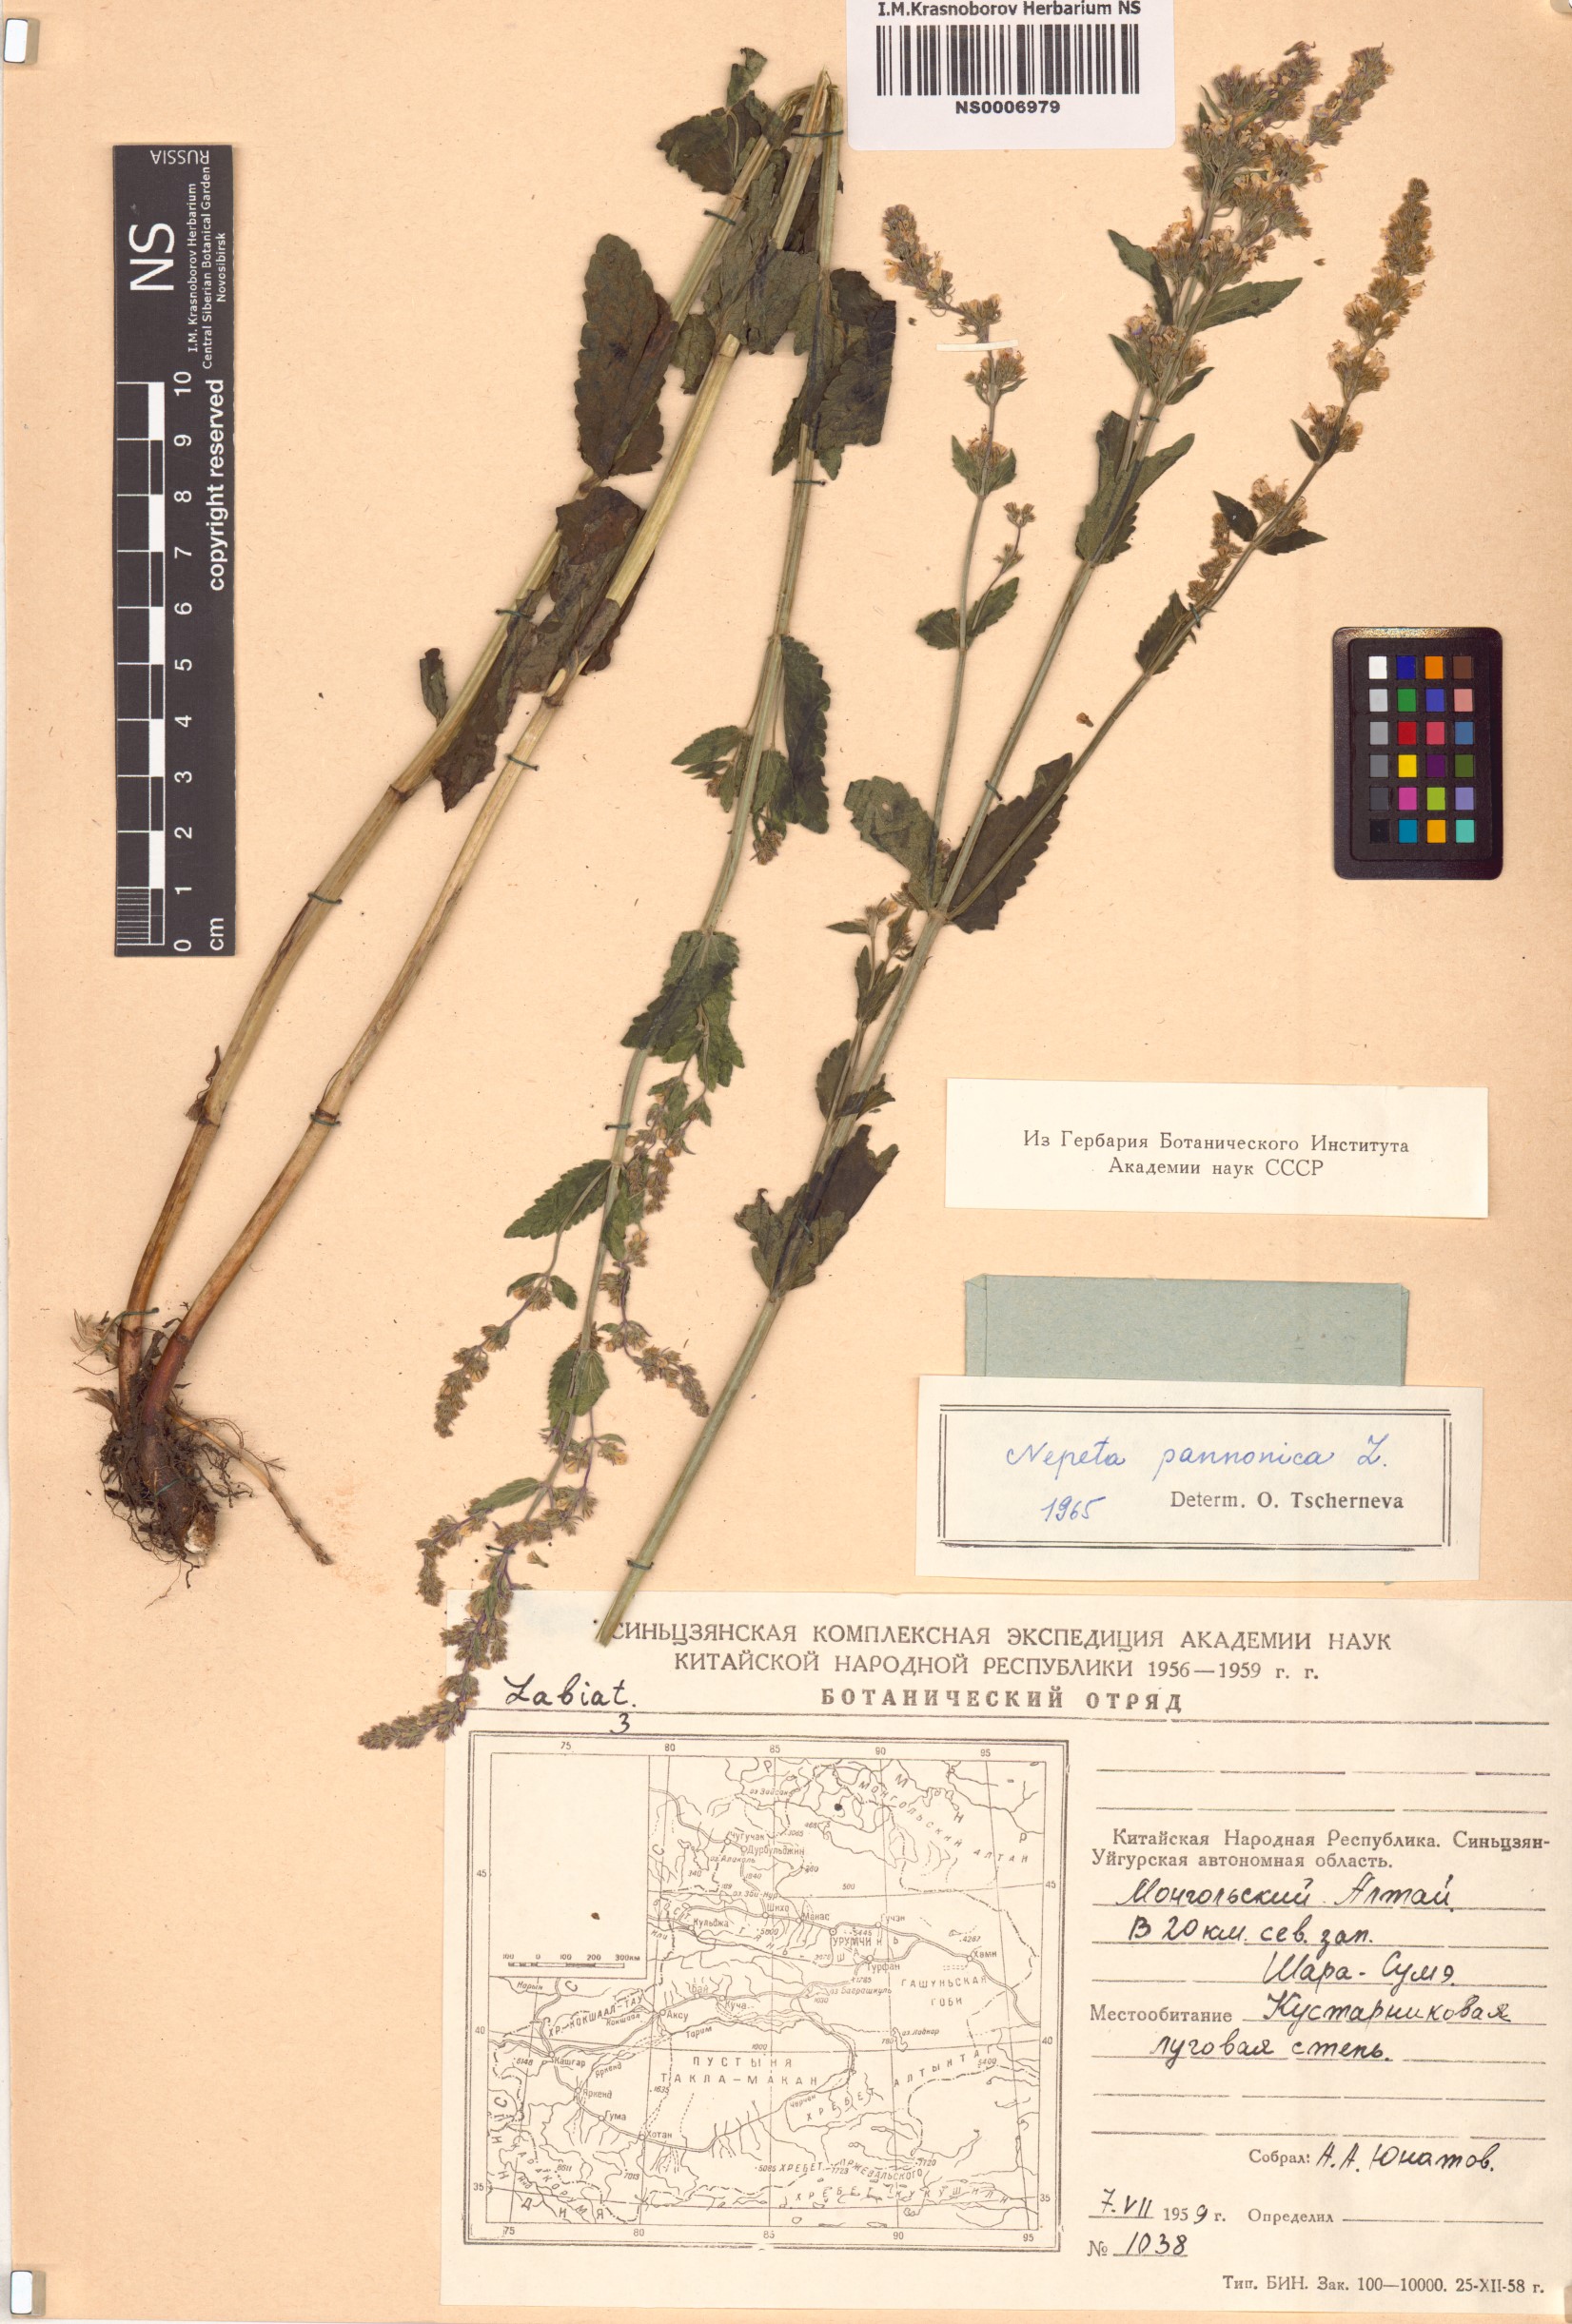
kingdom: Plantae
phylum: Tracheophyta
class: Magnoliopsida
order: Lamiales
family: Lamiaceae
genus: Nepeta
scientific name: Nepeta nuda
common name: Hairless catmint
